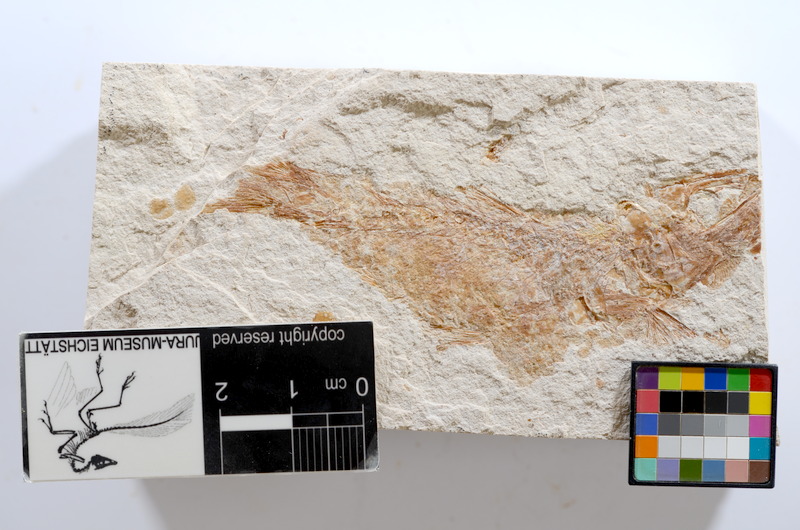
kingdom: Animalia
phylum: Chordata
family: Ascalaboidae
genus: Tharsis
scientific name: Tharsis dubius
